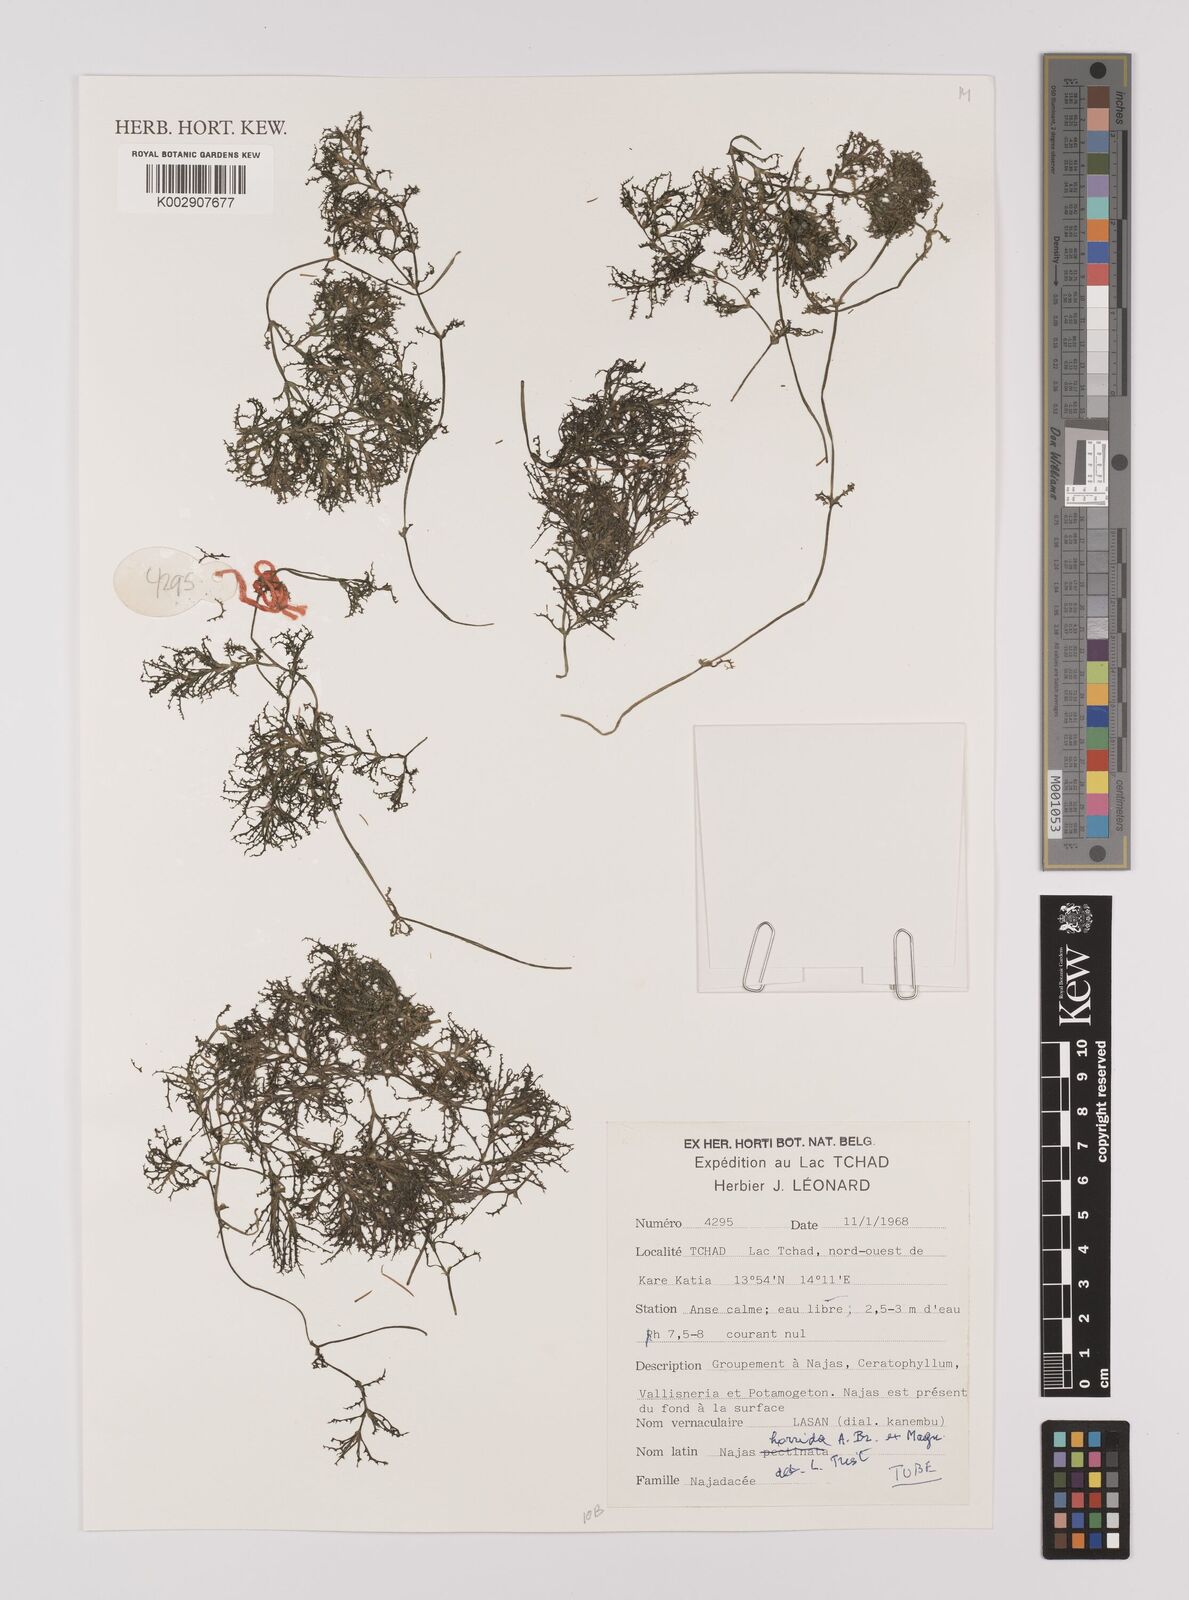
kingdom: Plantae
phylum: Tracheophyta
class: Liliopsida
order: Alismatales
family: Hydrocharitaceae
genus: Najas
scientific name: Najas horrida
